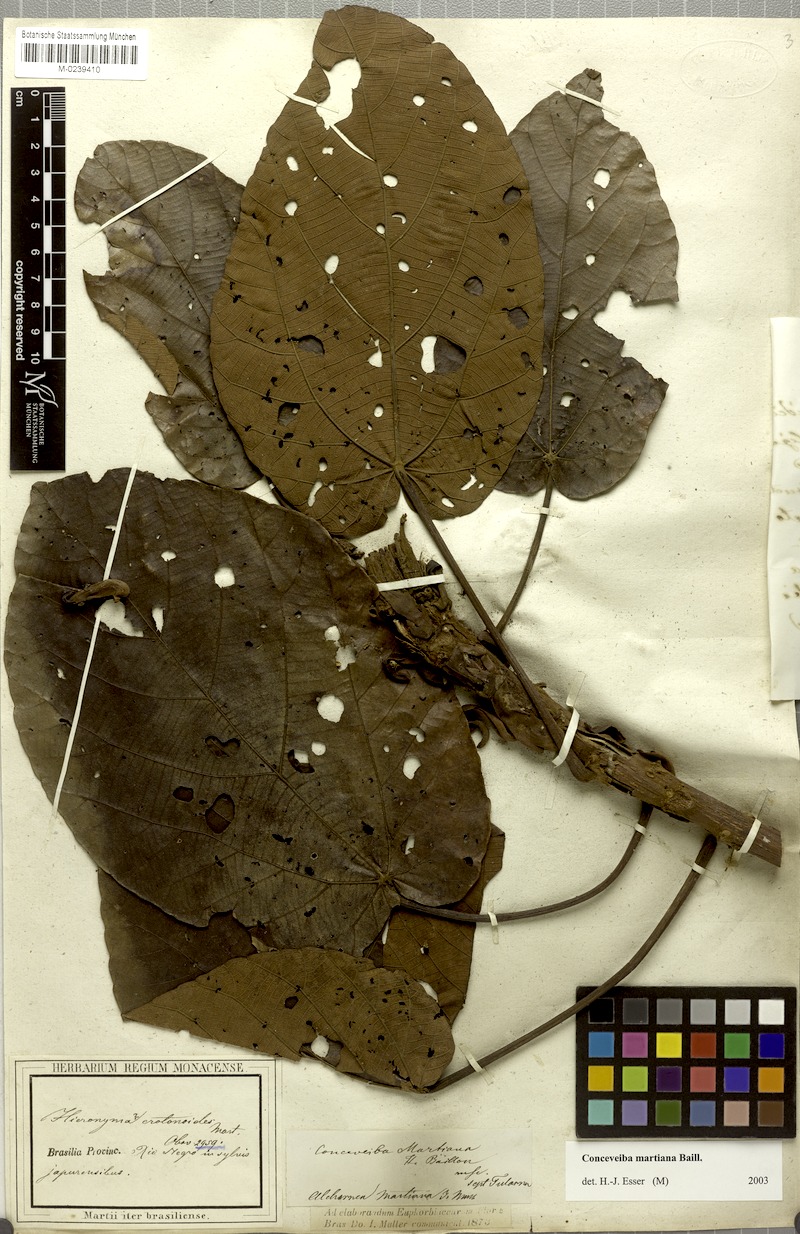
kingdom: Plantae
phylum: Tracheophyta
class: Magnoliopsida
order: Malpighiales
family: Euphorbiaceae
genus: Conceveiba
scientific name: Conceveiba martiana
